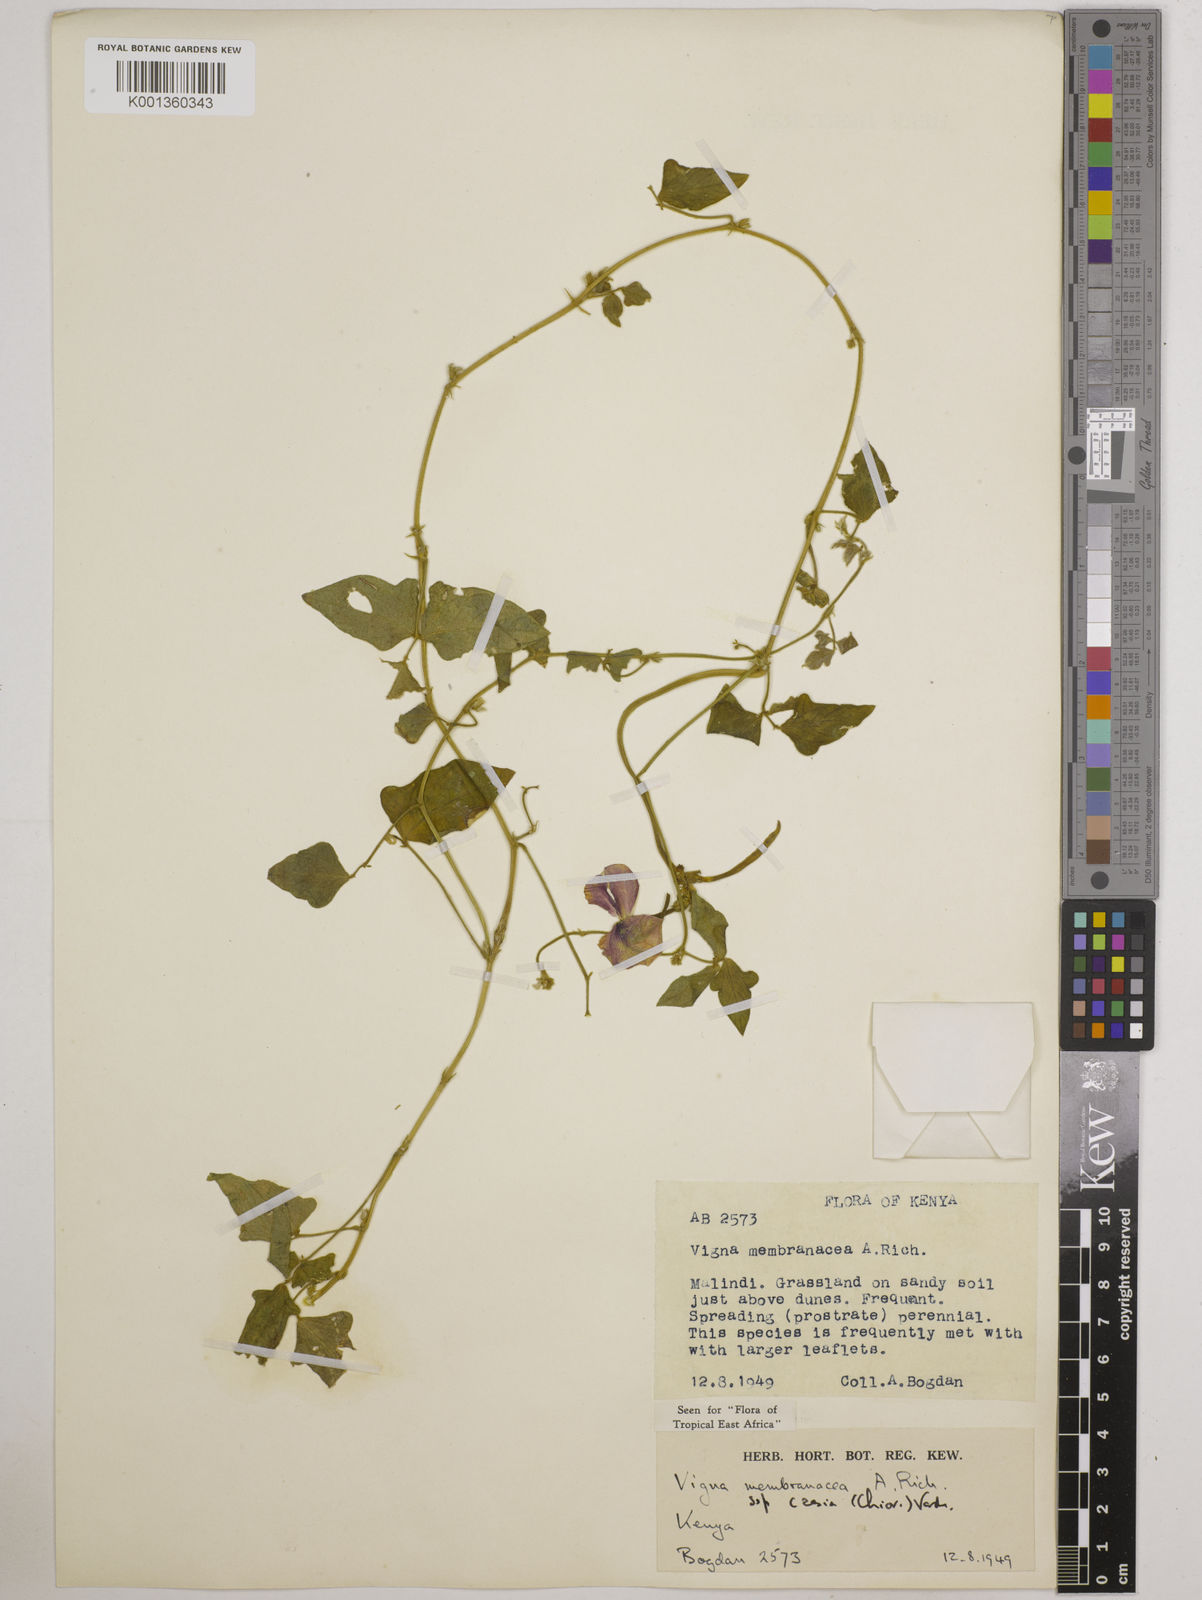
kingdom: Plantae
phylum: Tracheophyta
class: Magnoliopsida
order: Fabales
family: Fabaceae
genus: Vigna
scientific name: Vigna
